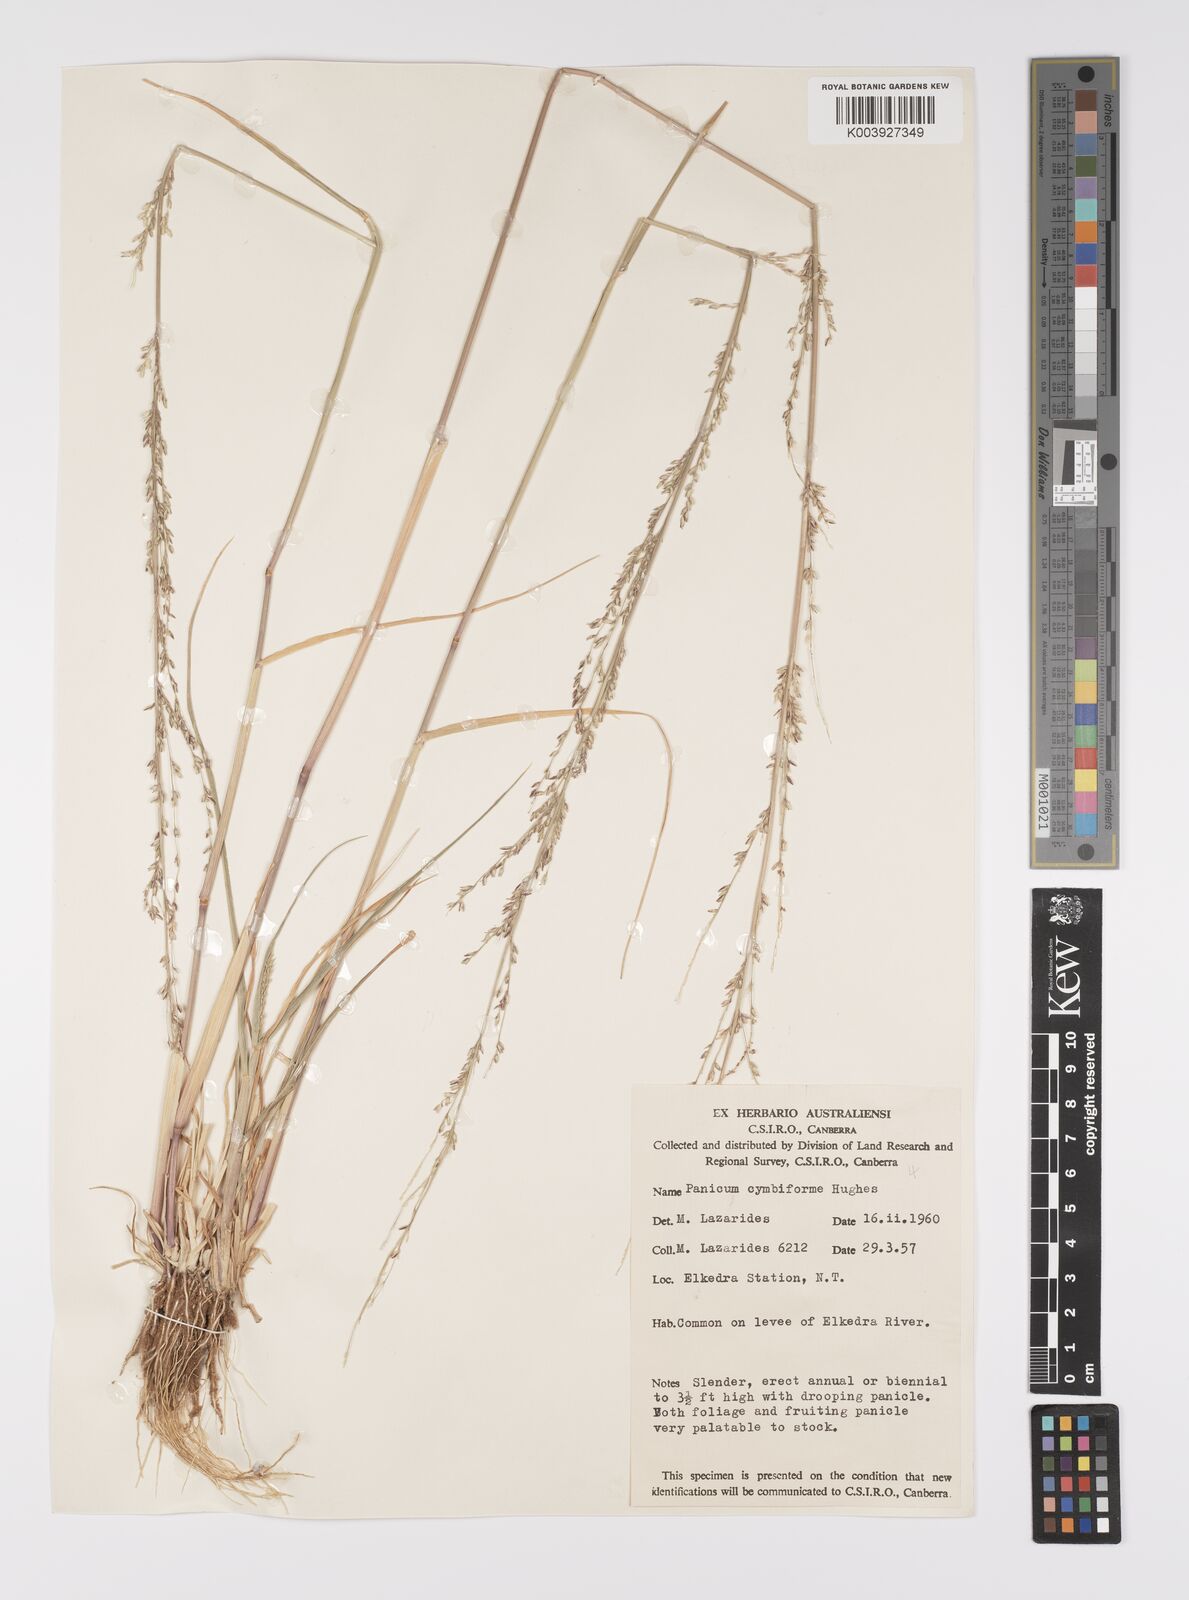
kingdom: Plantae
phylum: Tracheophyta
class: Liliopsida
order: Poales
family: Poaceae
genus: Whiteochloa
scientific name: Whiteochloa cymbiformis
